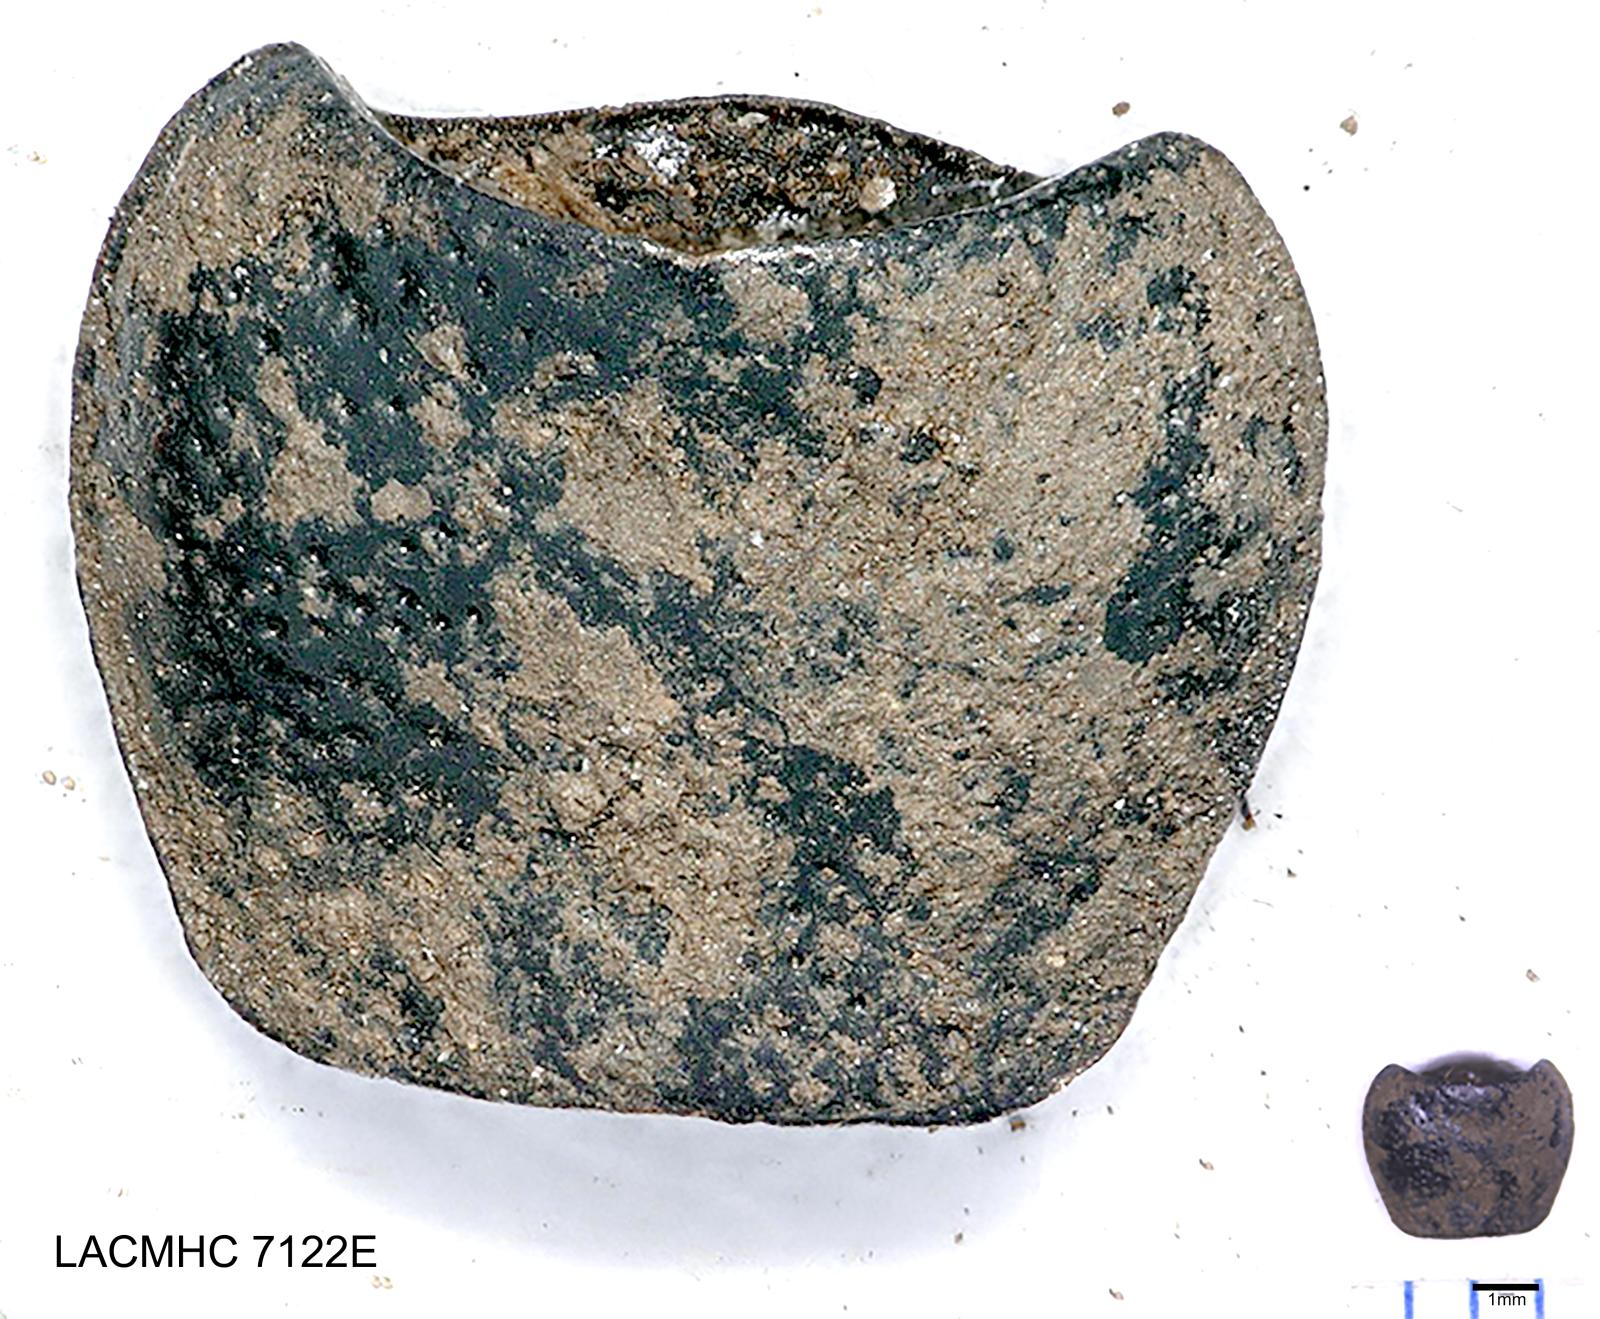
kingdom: Animalia
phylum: Arthropoda
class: Insecta
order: Coleoptera
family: Carabidae
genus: Dicheirus
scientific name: Dicheirus dilatatus
